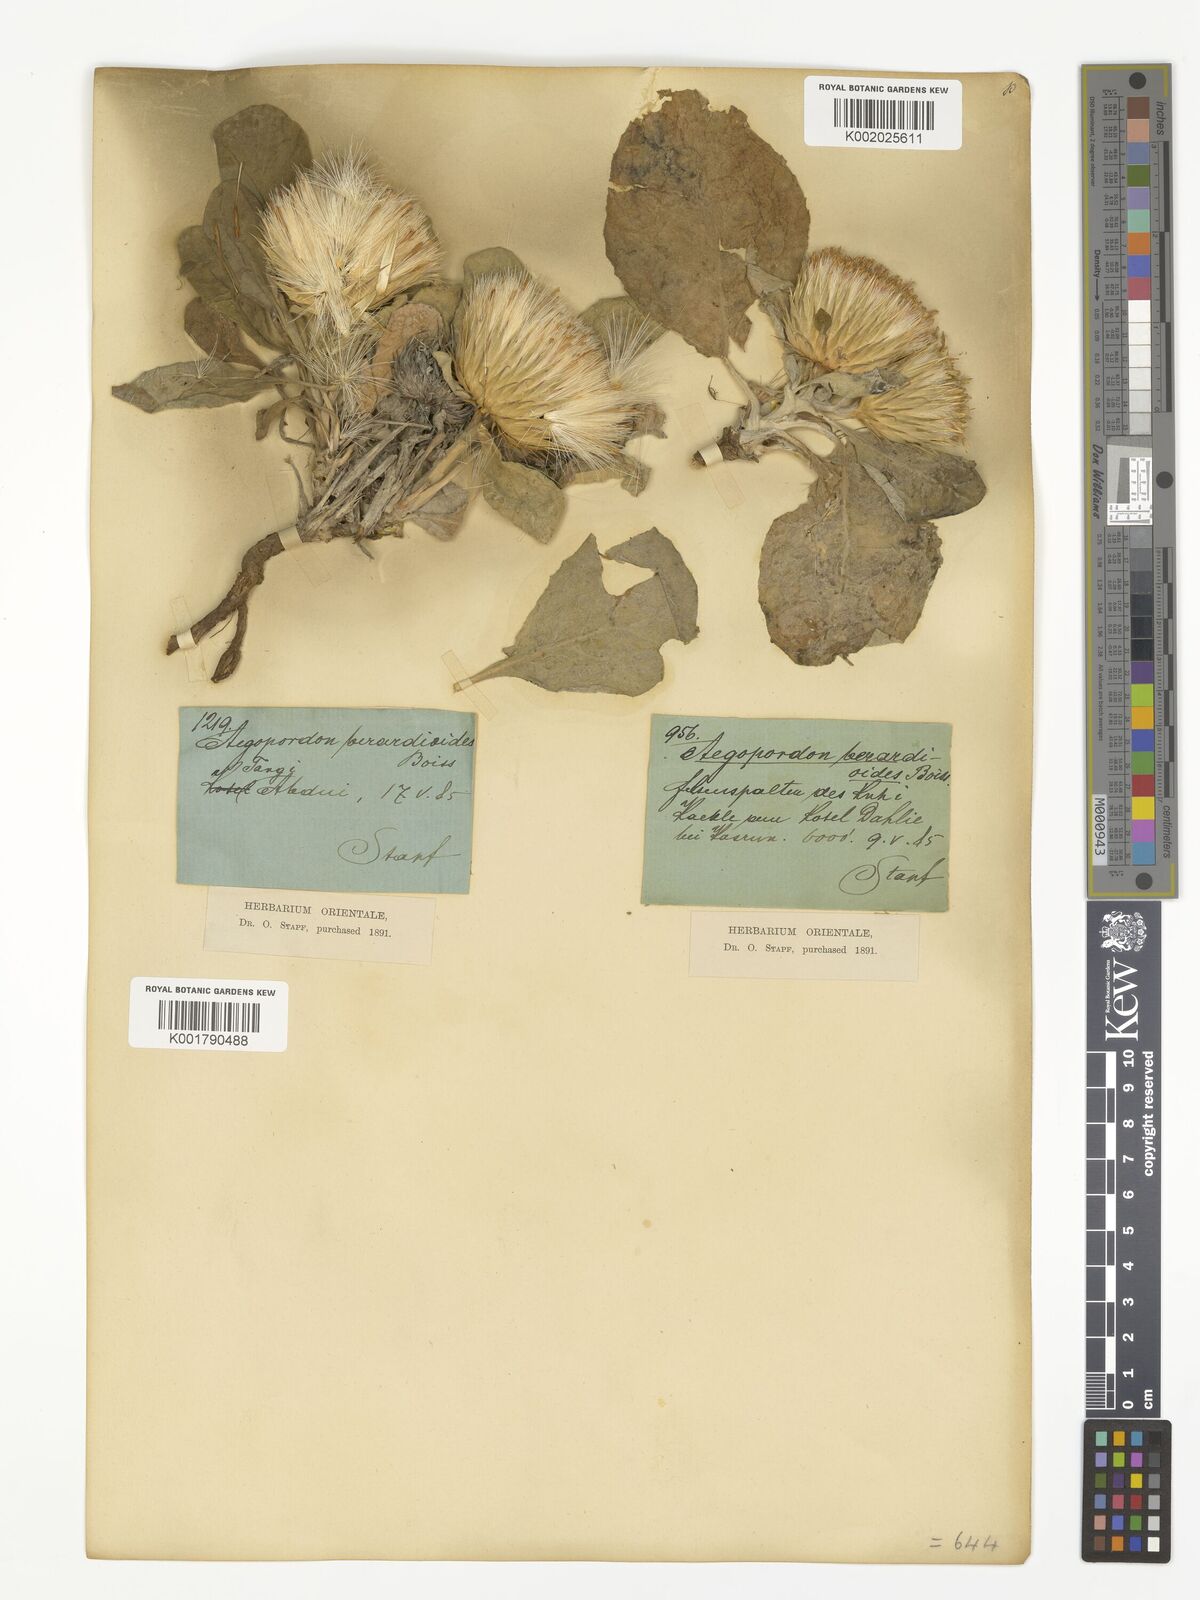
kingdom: Plantae
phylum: Tracheophyta
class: Magnoliopsida
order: Asterales
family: Asteraceae
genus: Jurinea
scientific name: Jurinea berardioides
